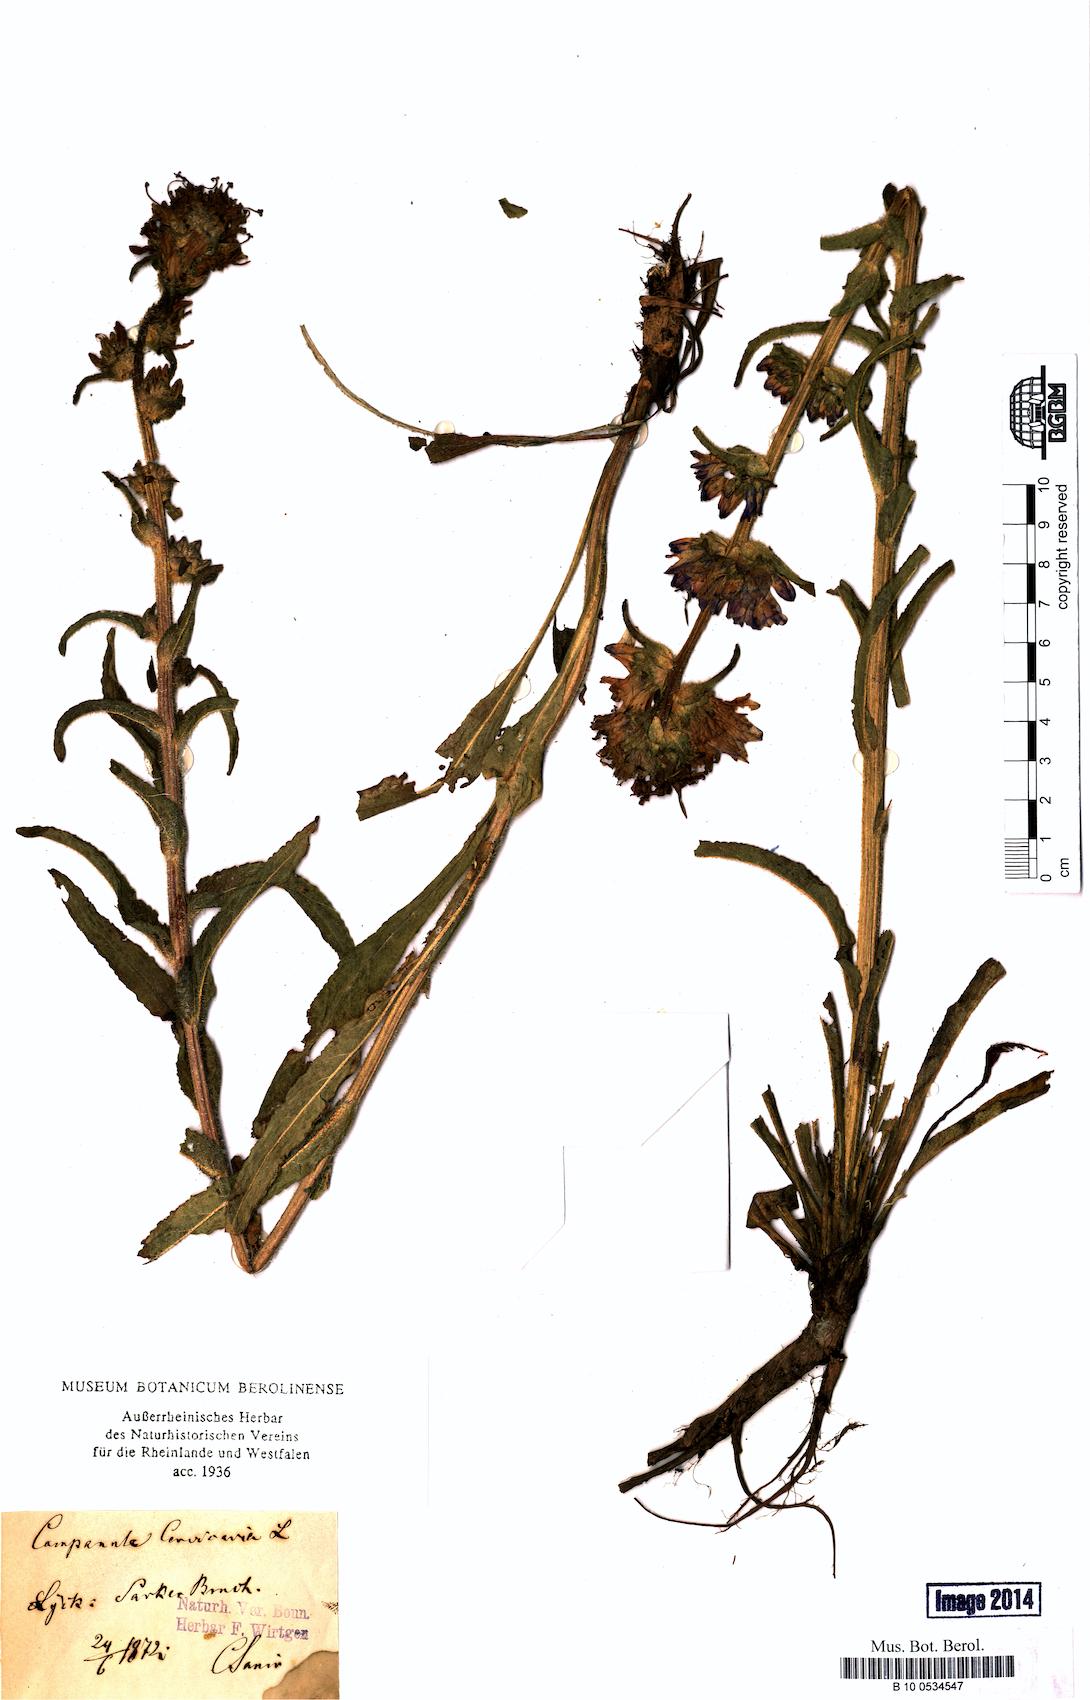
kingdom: Plantae
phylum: Tracheophyta
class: Magnoliopsida
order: Asterales
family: Campanulaceae
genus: Campanula
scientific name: Campanula cervicaria
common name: Bristly bellflower
